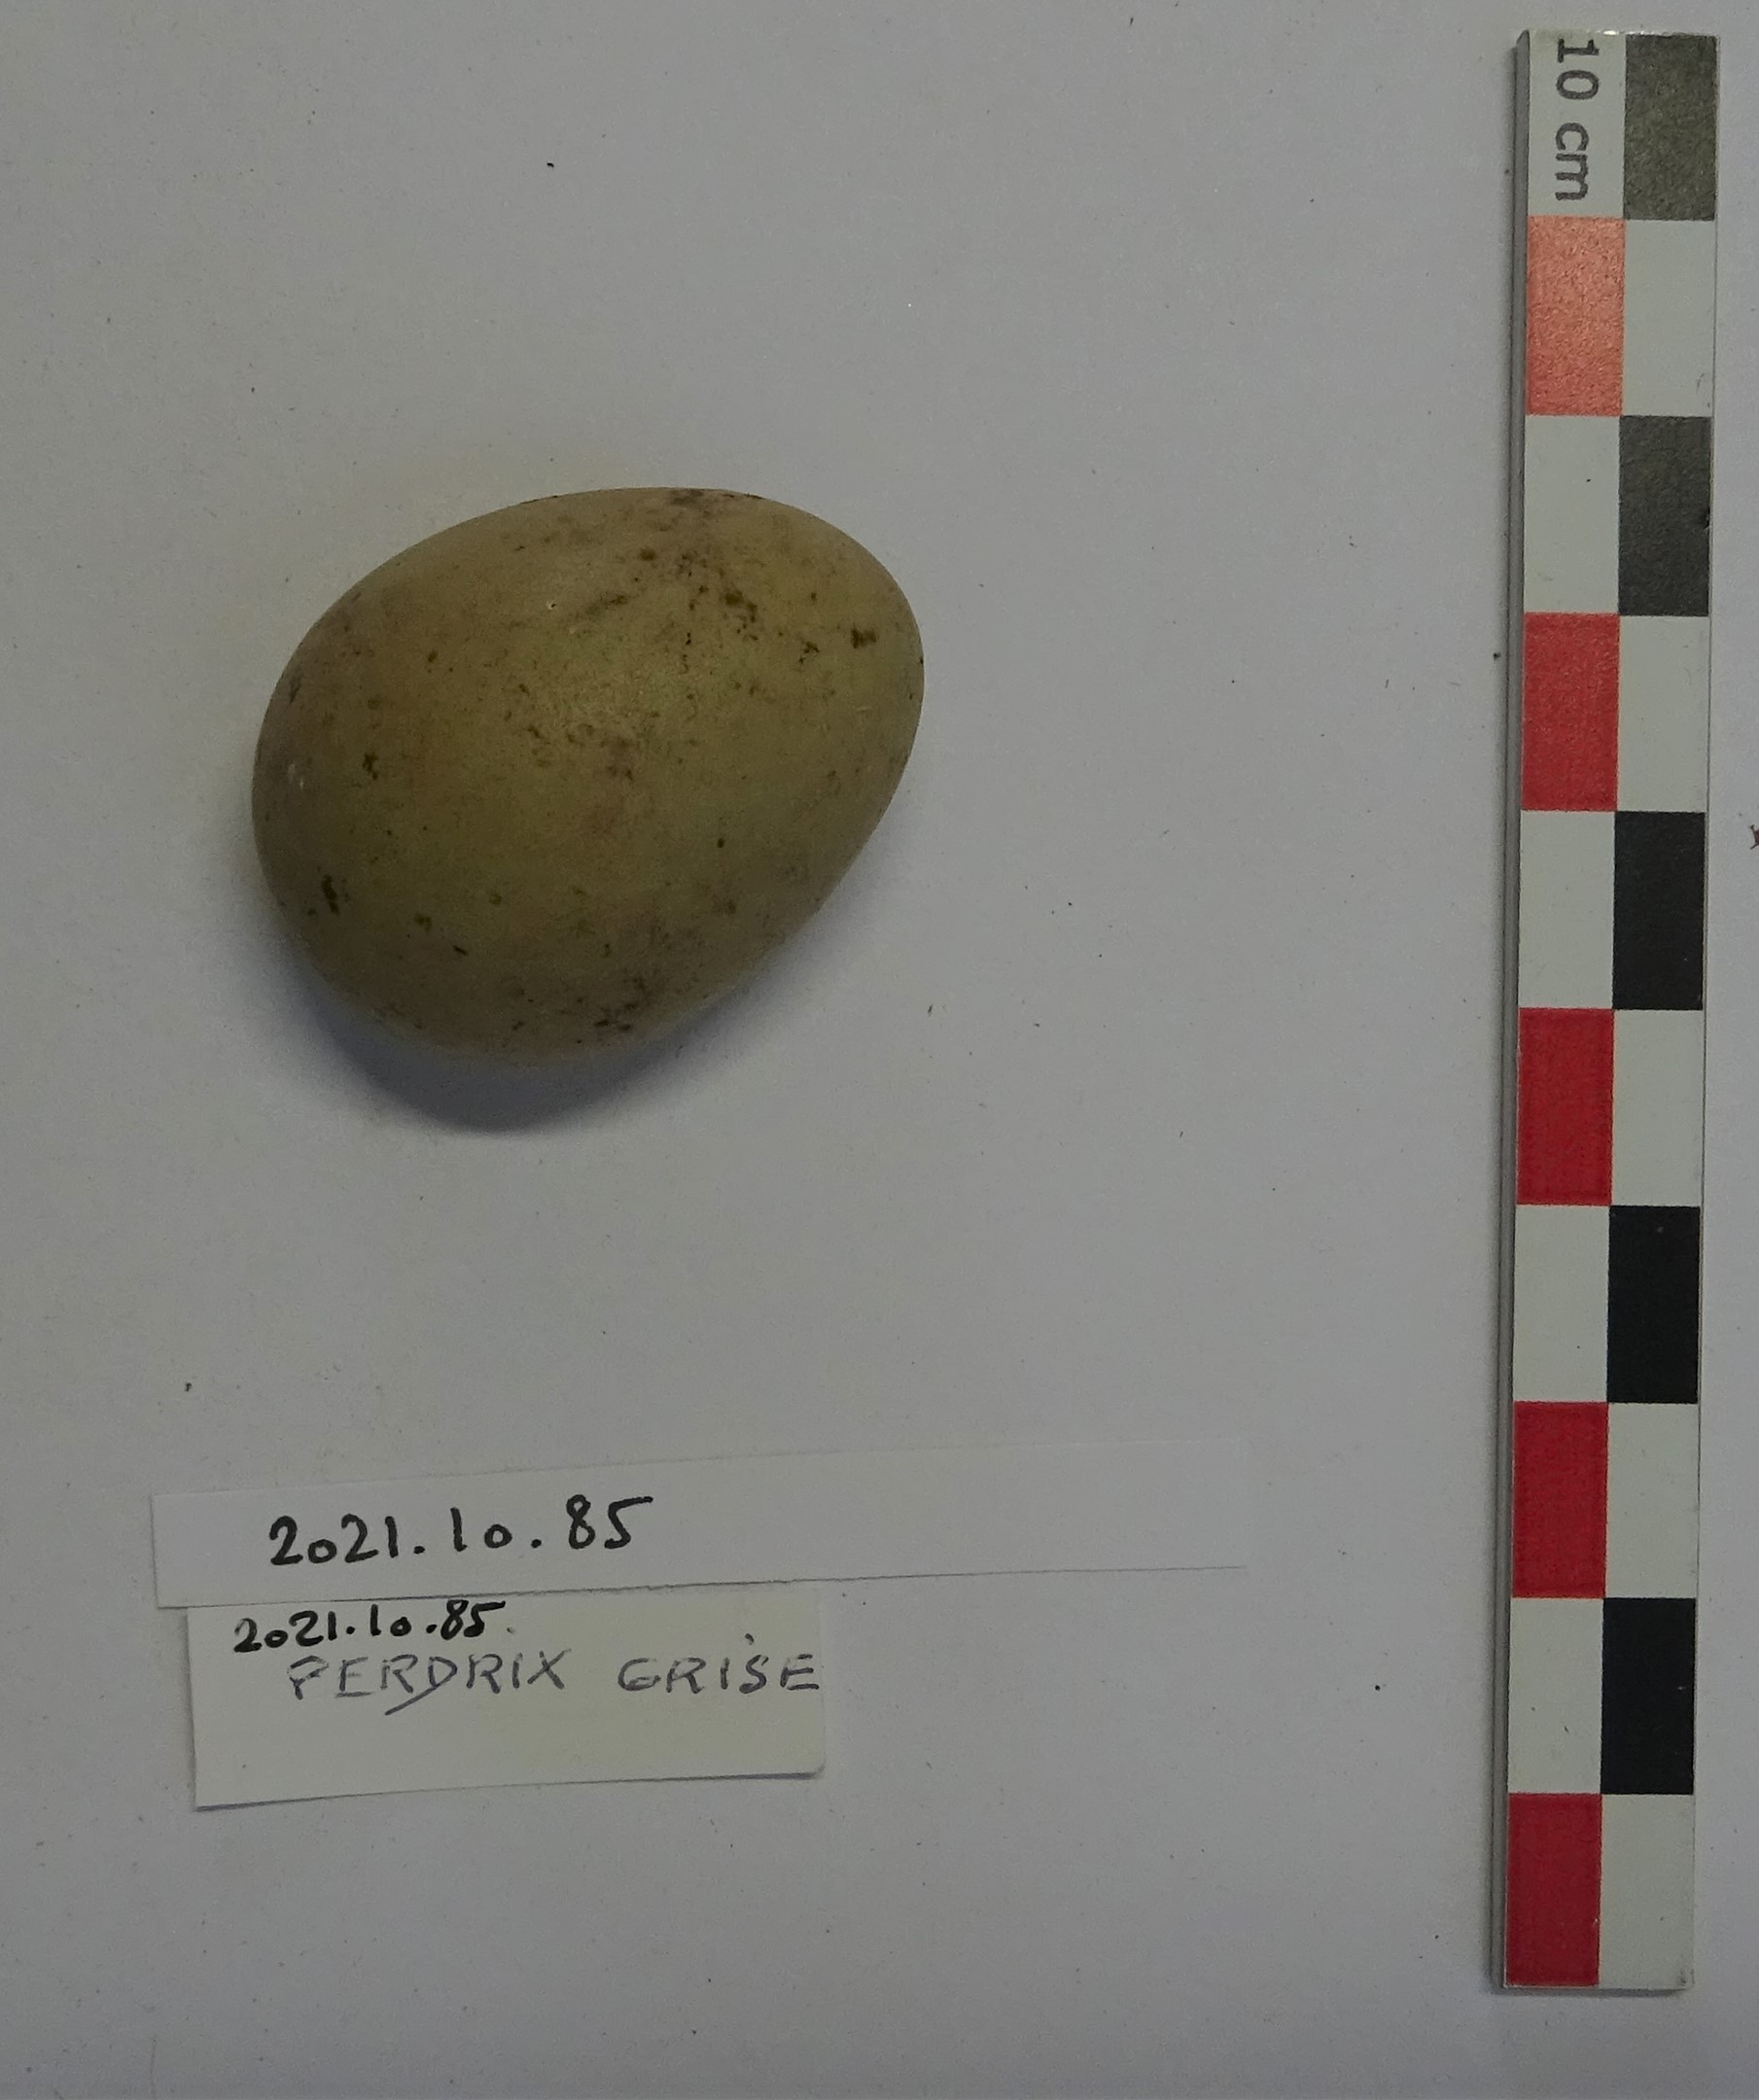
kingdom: Animalia
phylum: Chordata
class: Aves
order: Galliformes
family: Phasianidae
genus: Perdix
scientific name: Perdix perdix
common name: Grey partridge
